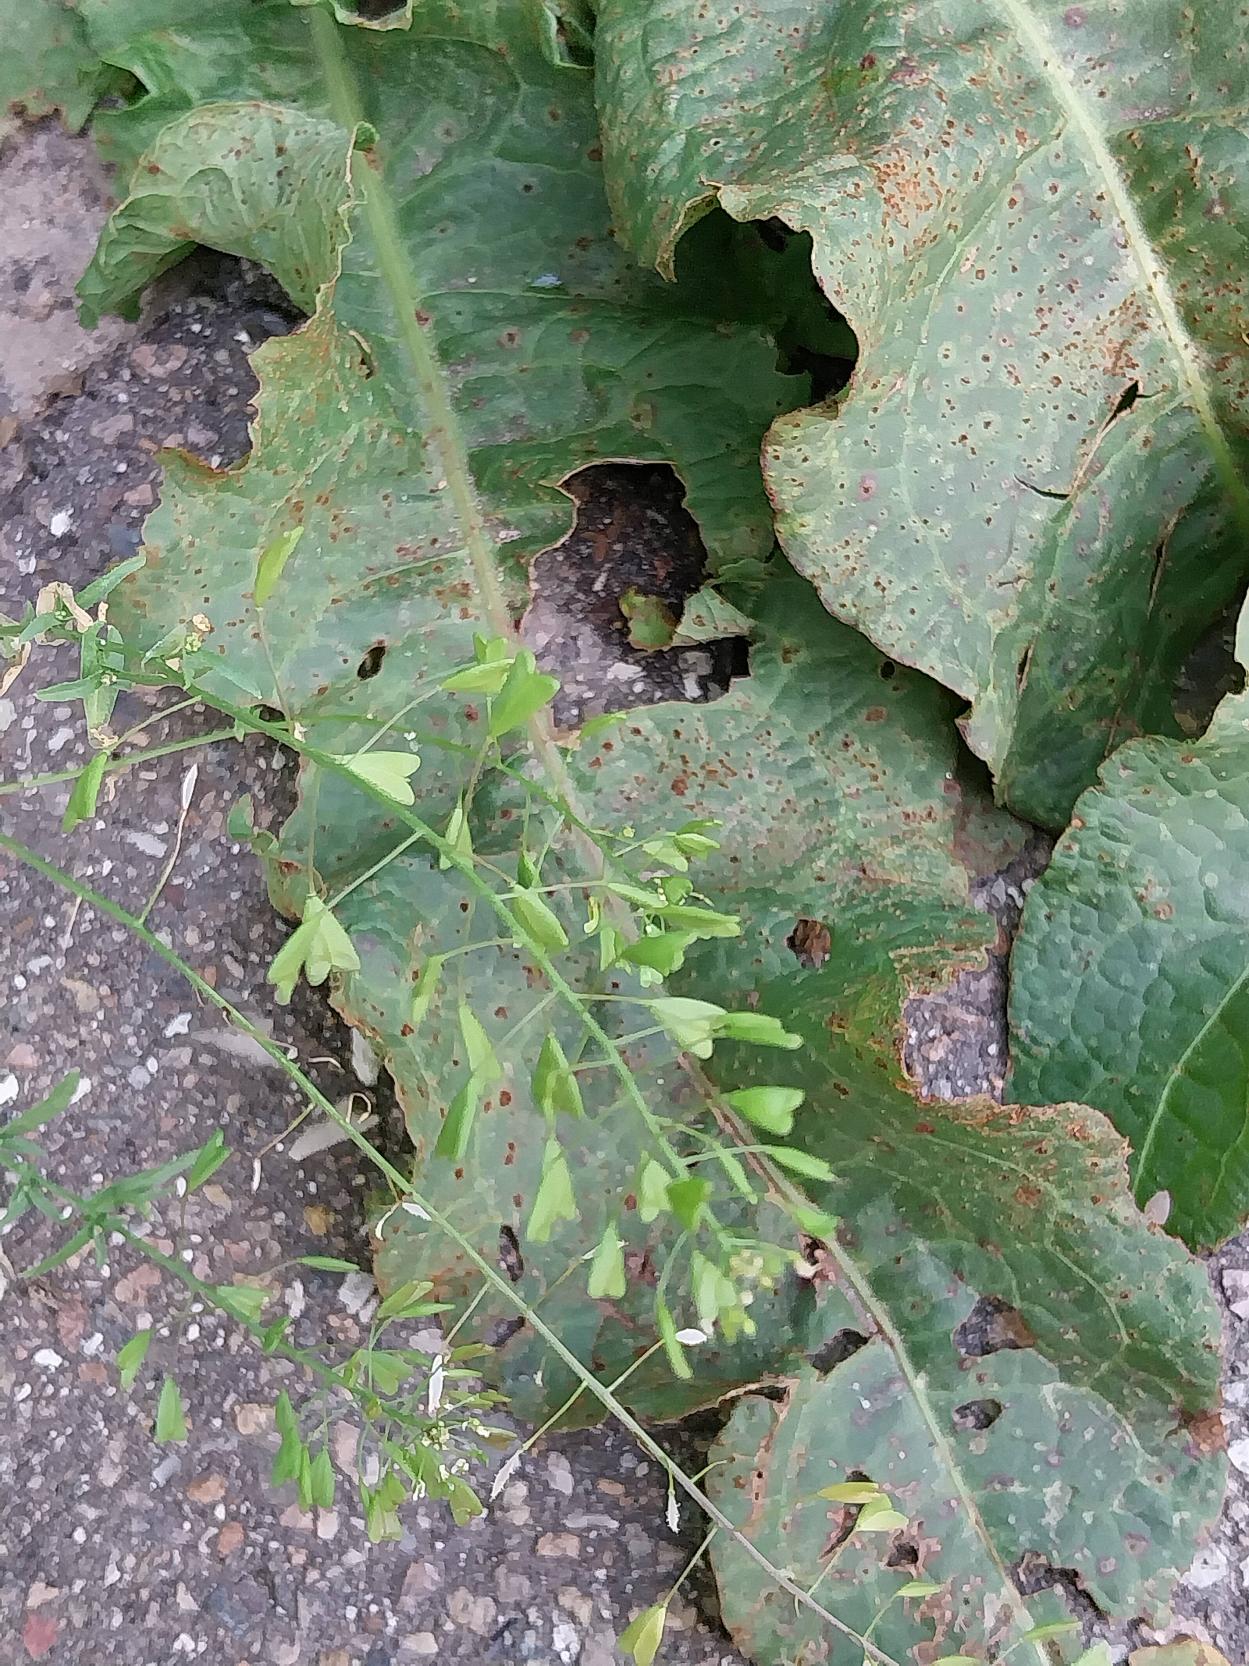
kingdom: Plantae
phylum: Tracheophyta
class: Magnoliopsida
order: Brassicales
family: Brassicaceae
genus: Capsella
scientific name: Capsella bursa-pastoris
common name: Hyrdetaske
